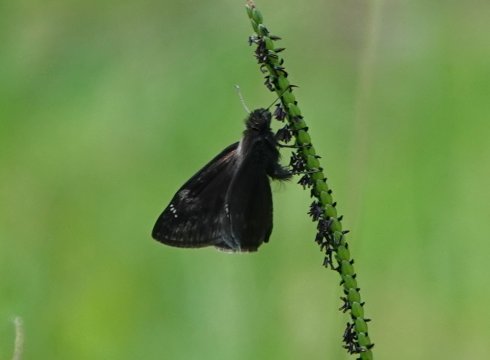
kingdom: Animalia
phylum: Arthropoda
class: Insecta
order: Lepidoptera
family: Hesperiidae
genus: Erynnis
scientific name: Erynnis zarucco
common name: Zarucco Duskywing
